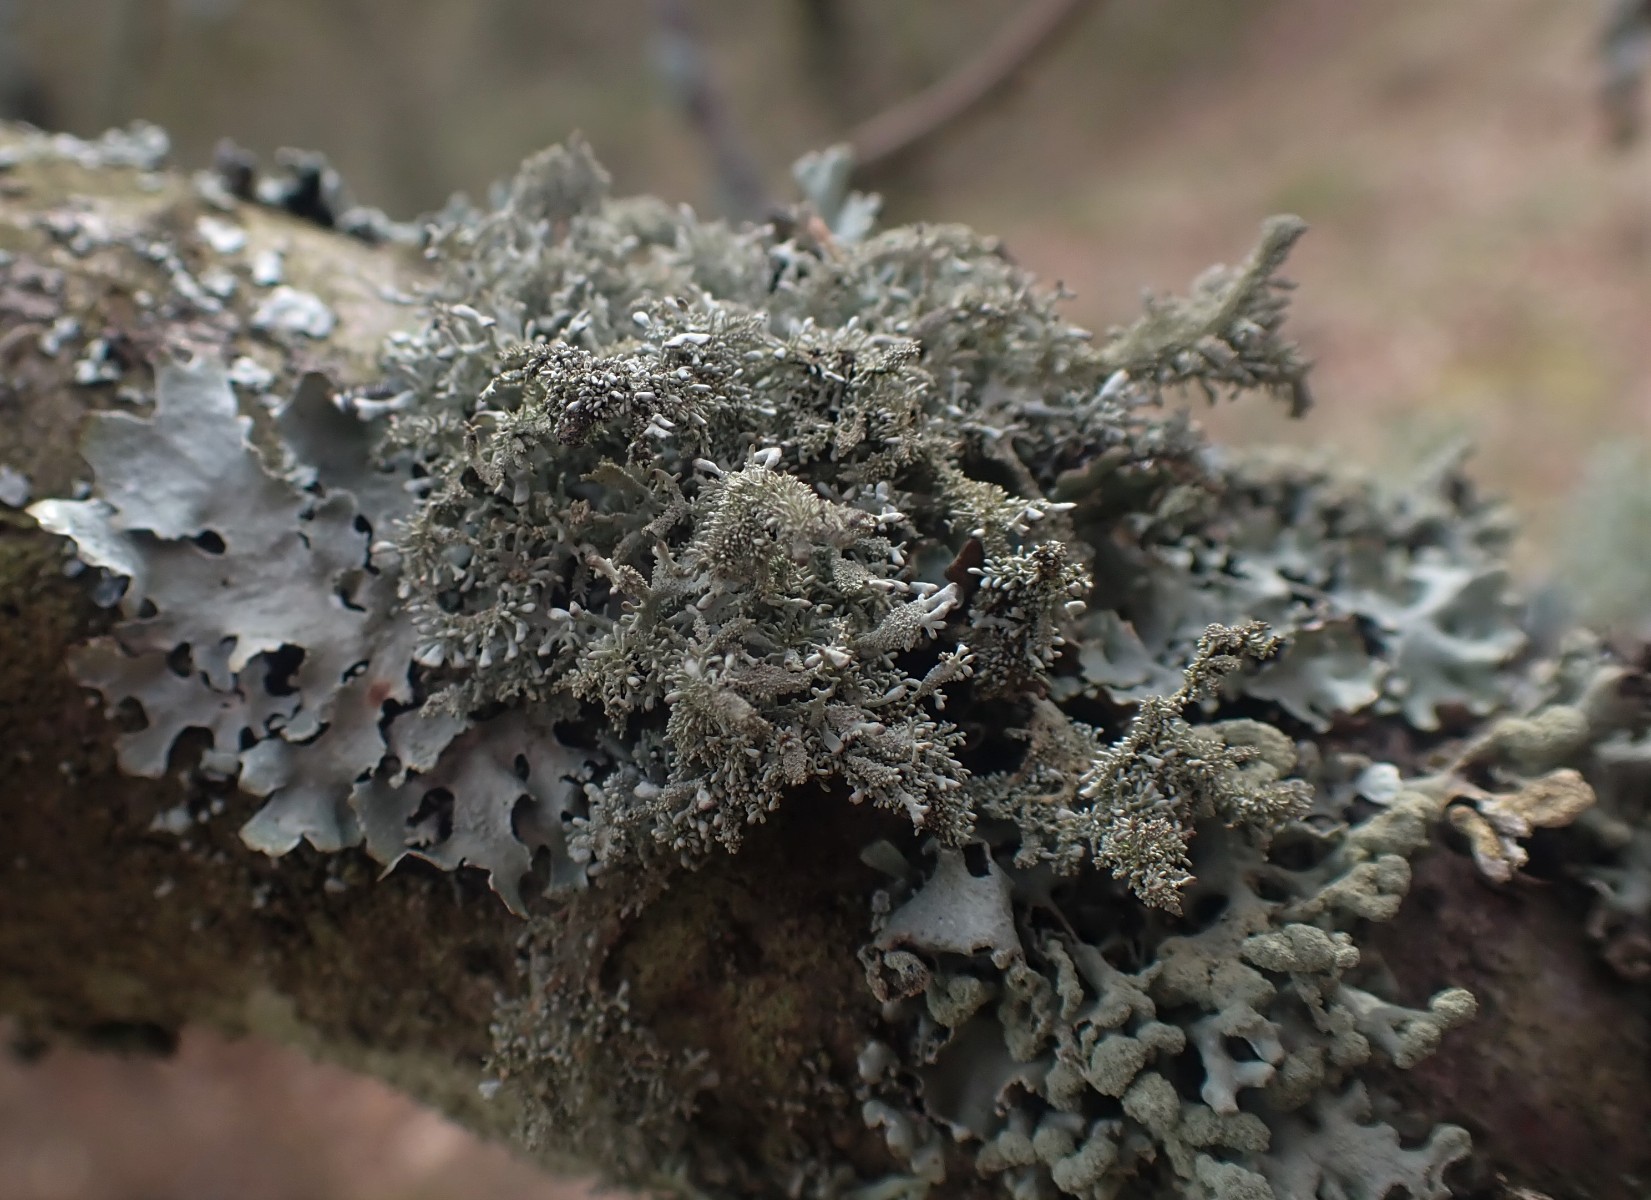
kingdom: Fungi
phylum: Ascomycota
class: Lecanoromycetes
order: Lecanorales
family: Parmeliaceae
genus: Pseudevernia
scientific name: Pseudevernia furfuracea
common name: grå fyrrelav
